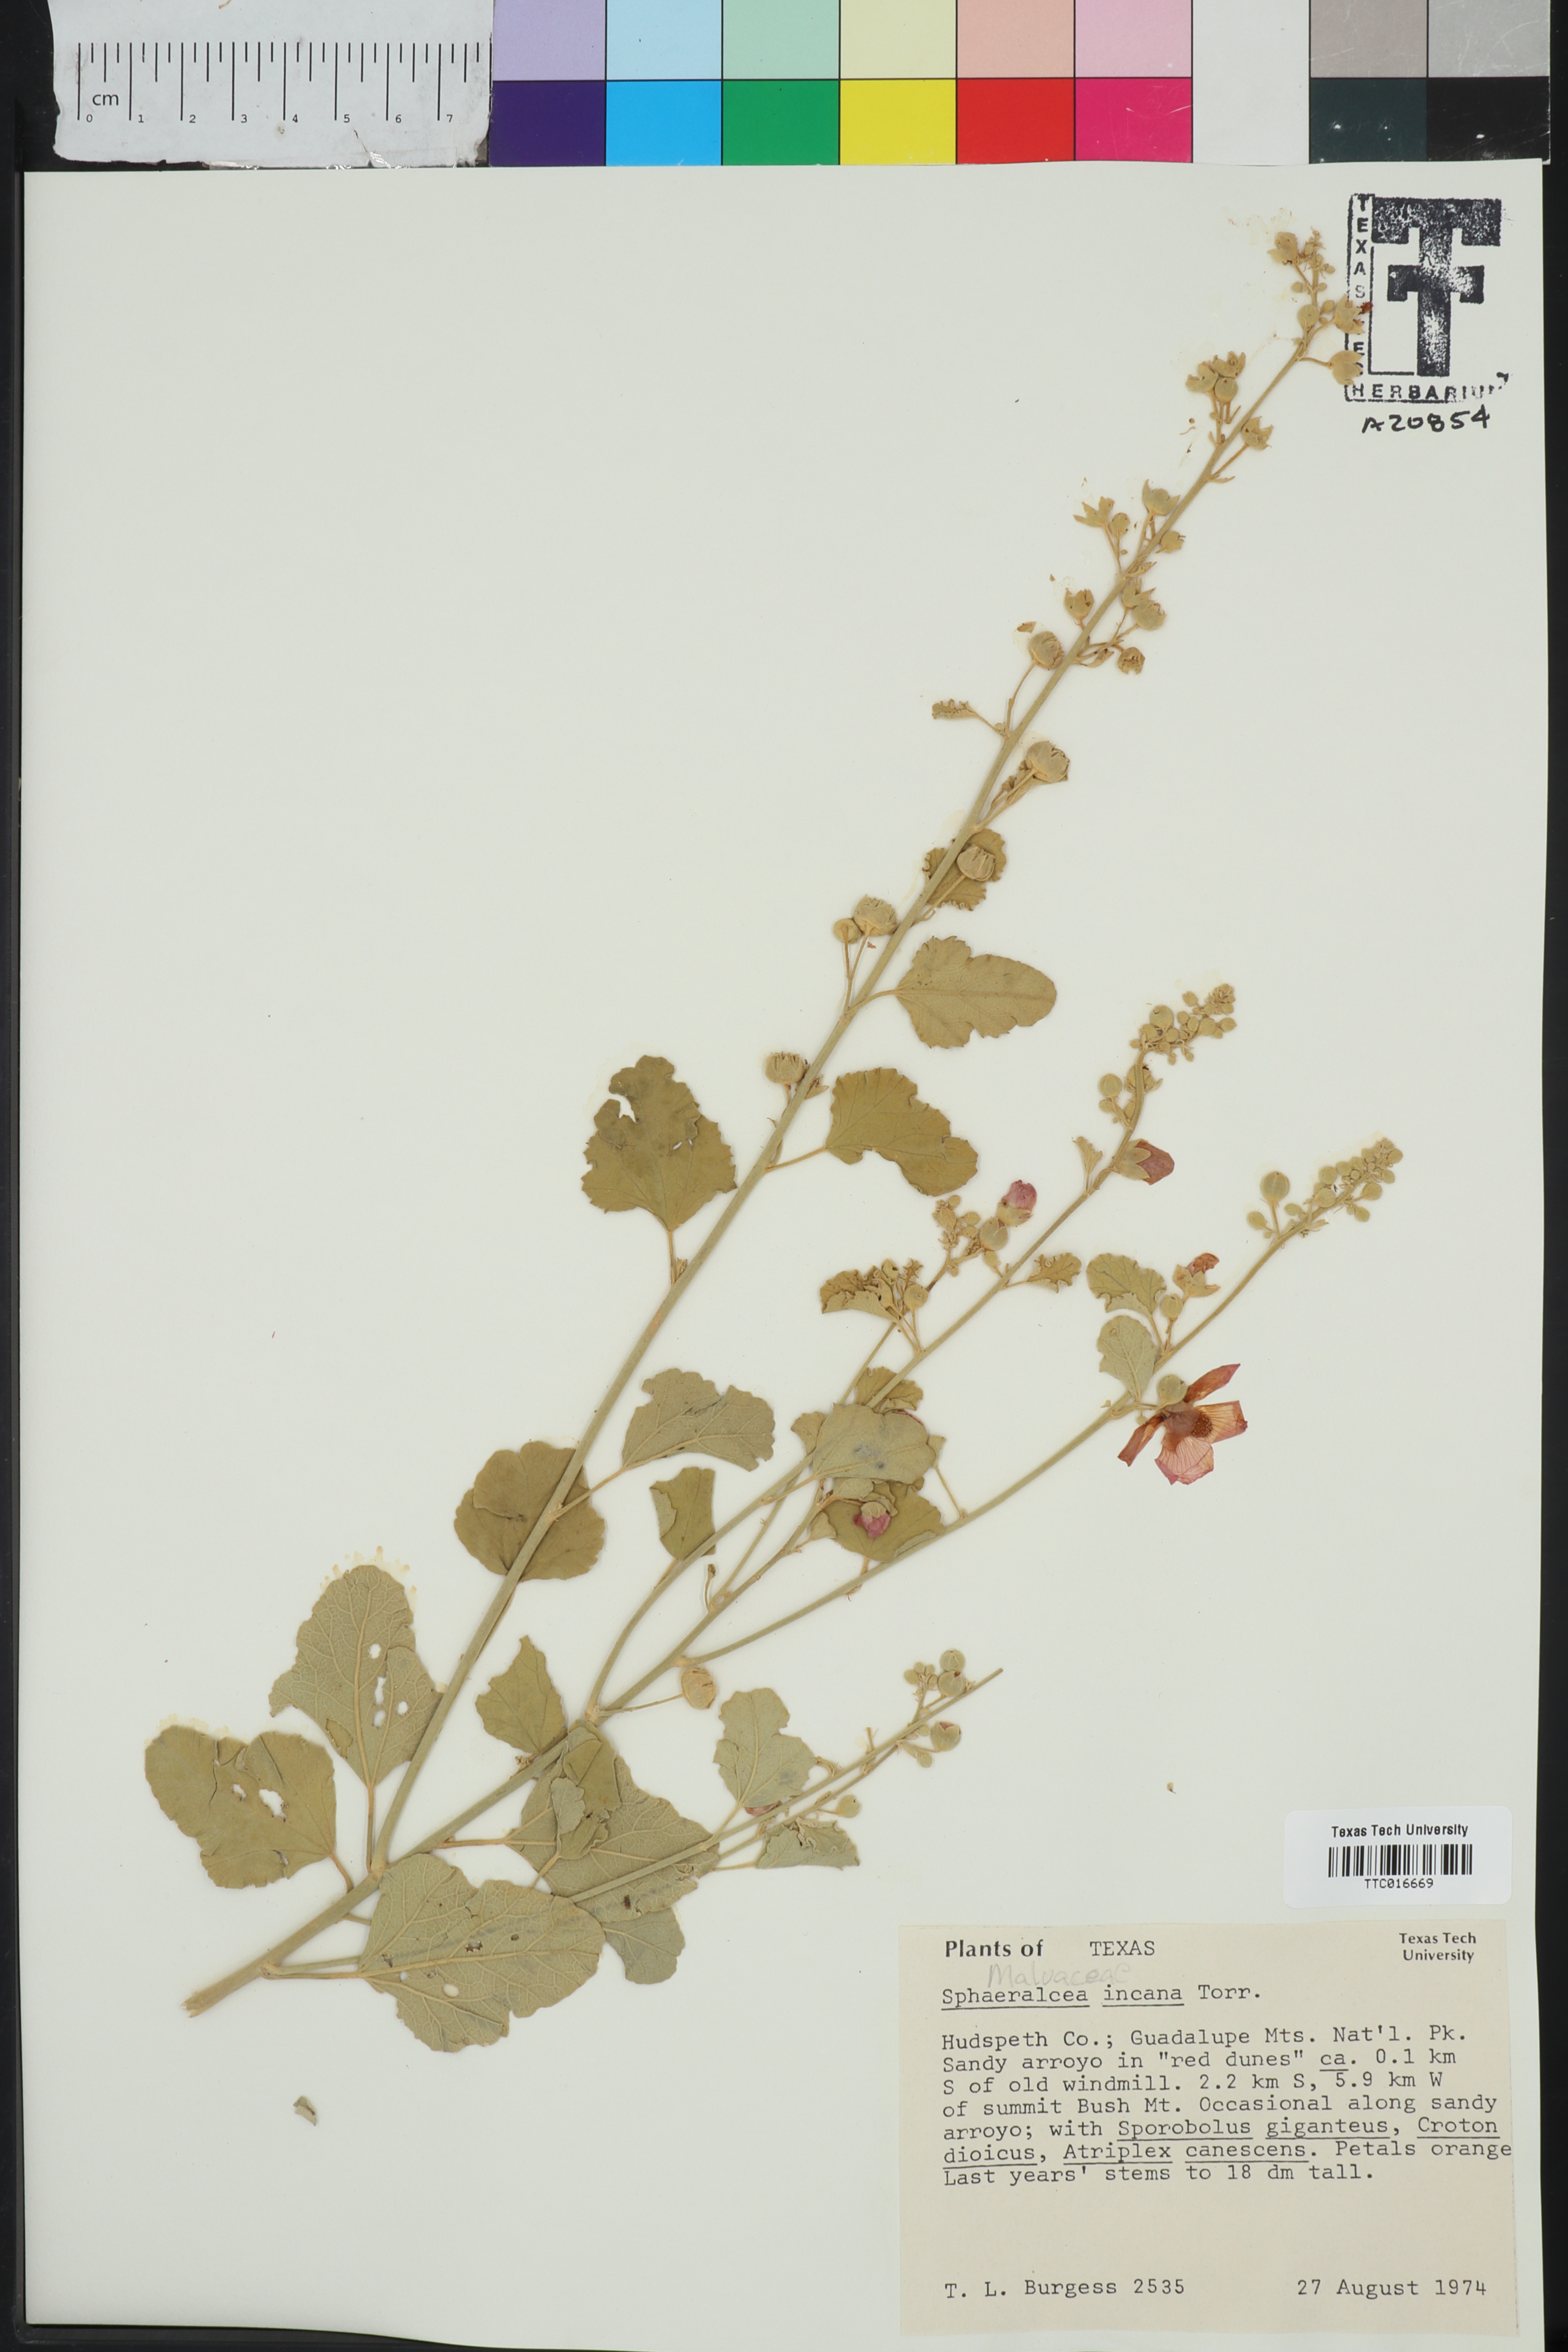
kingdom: Plantae
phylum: Tracheophyta
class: Magnoliopsida
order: Malvales
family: Malvaceae
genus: Sphaeralcea
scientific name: Sphaeralcea incana
